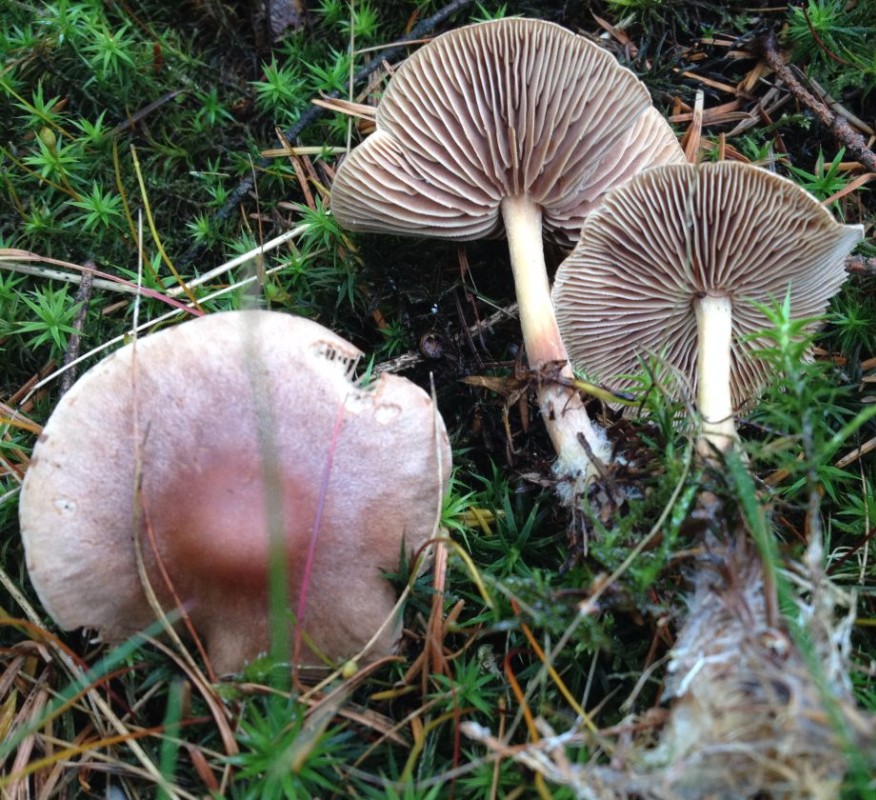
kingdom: Fungi
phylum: Basidiomycota
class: Agaricomycetes
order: Agaricales
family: Omphalotaceae
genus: Collybiopsis
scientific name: Collybiopsis peronata
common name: bestøvlet fladhat
